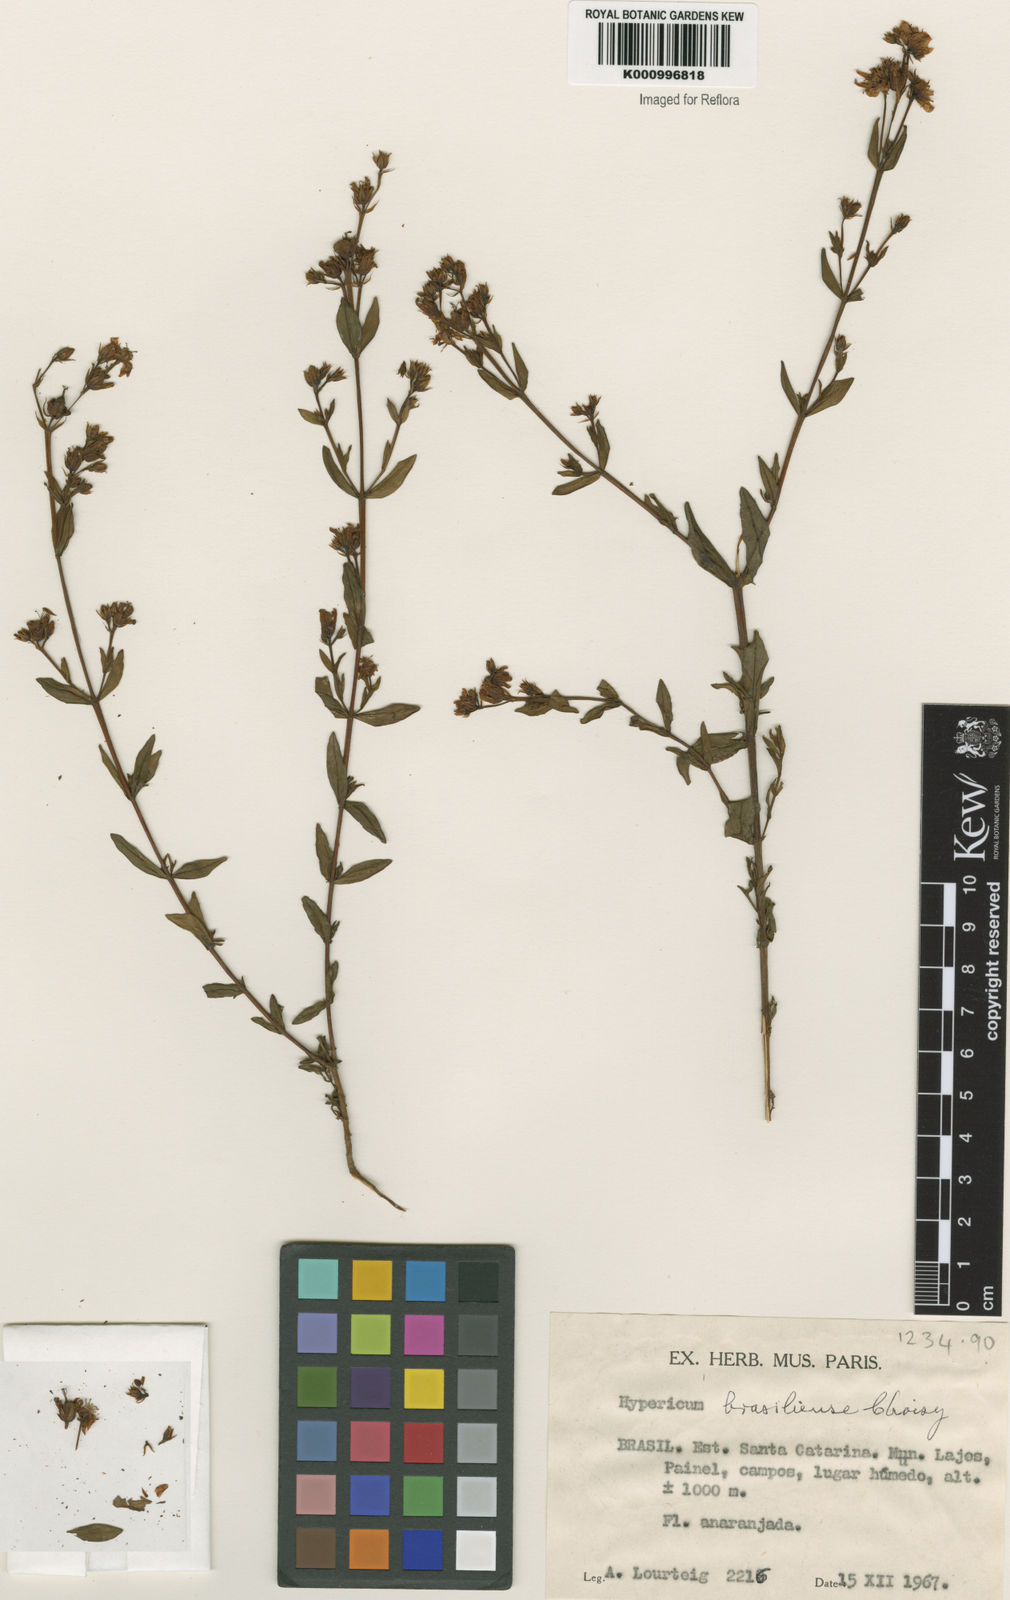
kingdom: Plantae
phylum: Tracheophyta
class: Magnoliopsida
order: Malpighiales
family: Hypericaceae
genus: Hypericum
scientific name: Hypericum brasiliense
